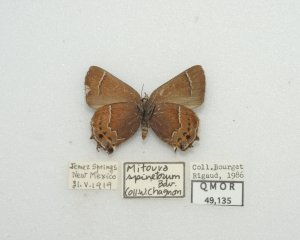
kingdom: Animalia
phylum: Arthropoda
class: Insecta
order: Lepidoptera
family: Lycaenidae
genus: Mitoura
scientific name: Mitoura spinetorum
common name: Thicket Hairstreak
